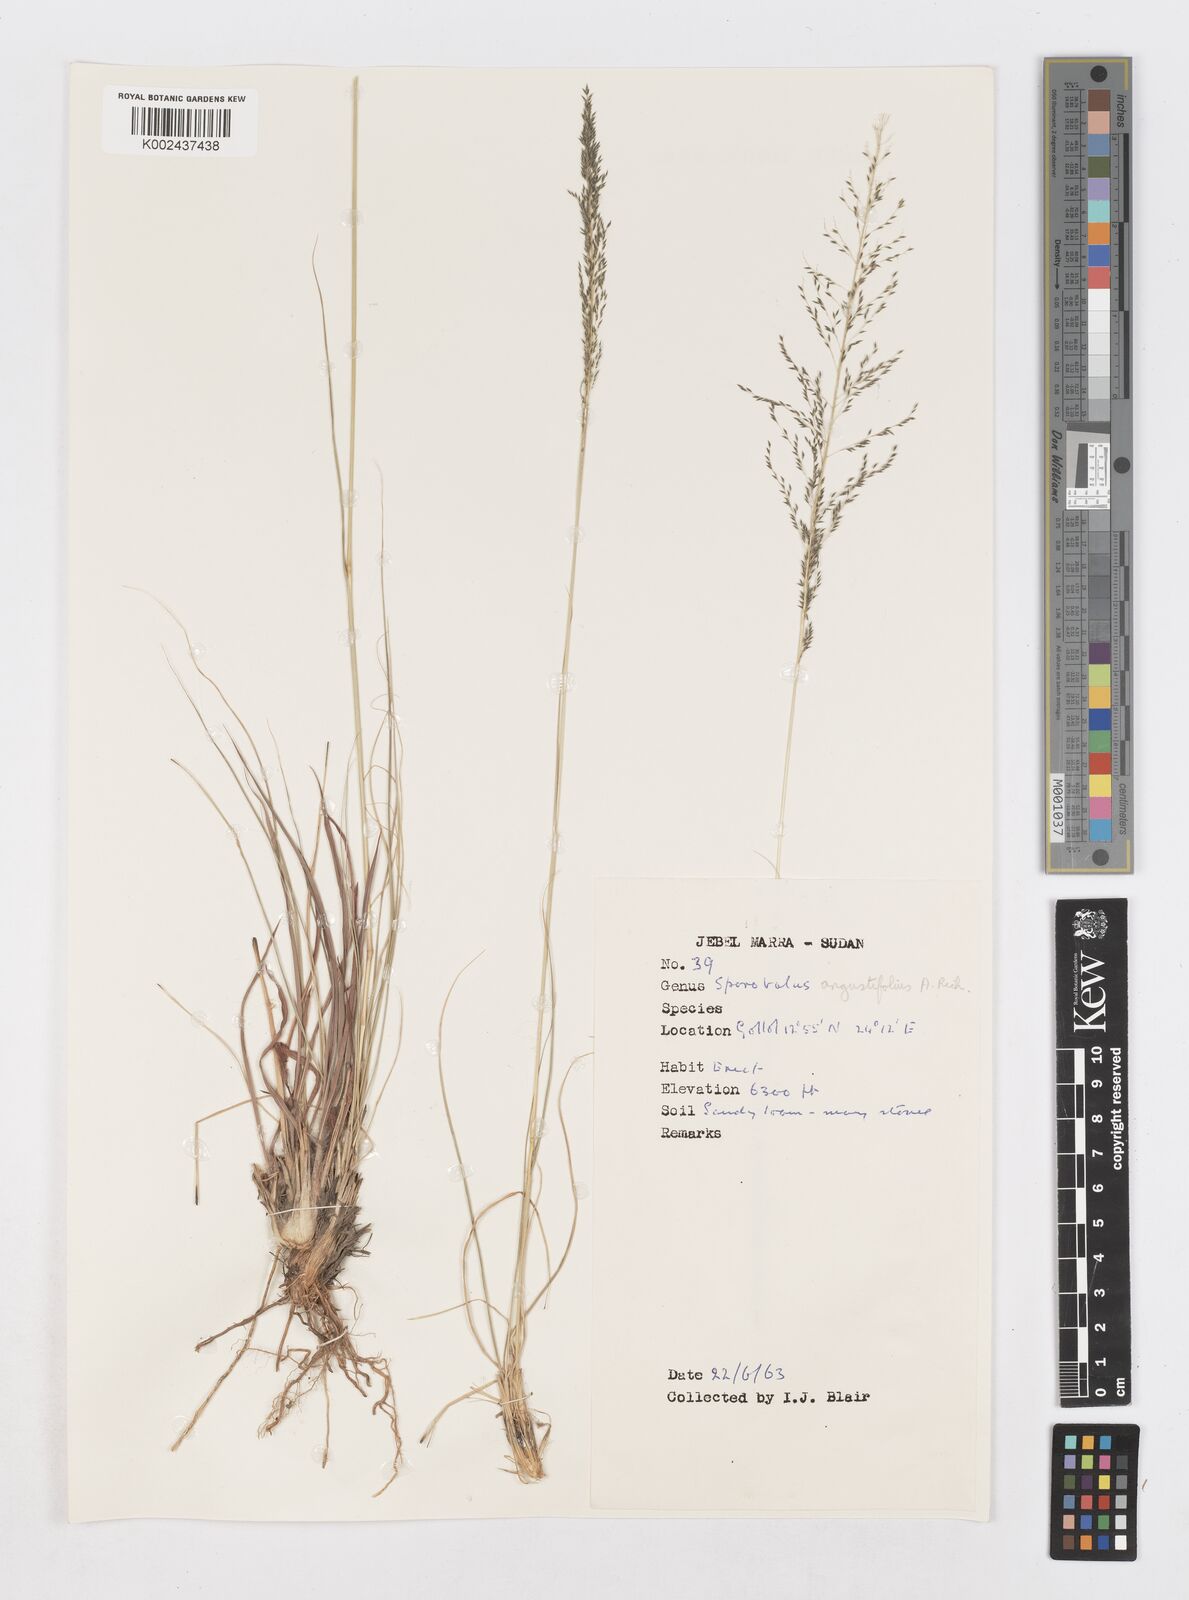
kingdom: Plantae
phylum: Tracheophyta
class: Liliopsida
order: Poales
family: Poaceae
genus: Sporobolus
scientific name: Sporobolus angustifolius
